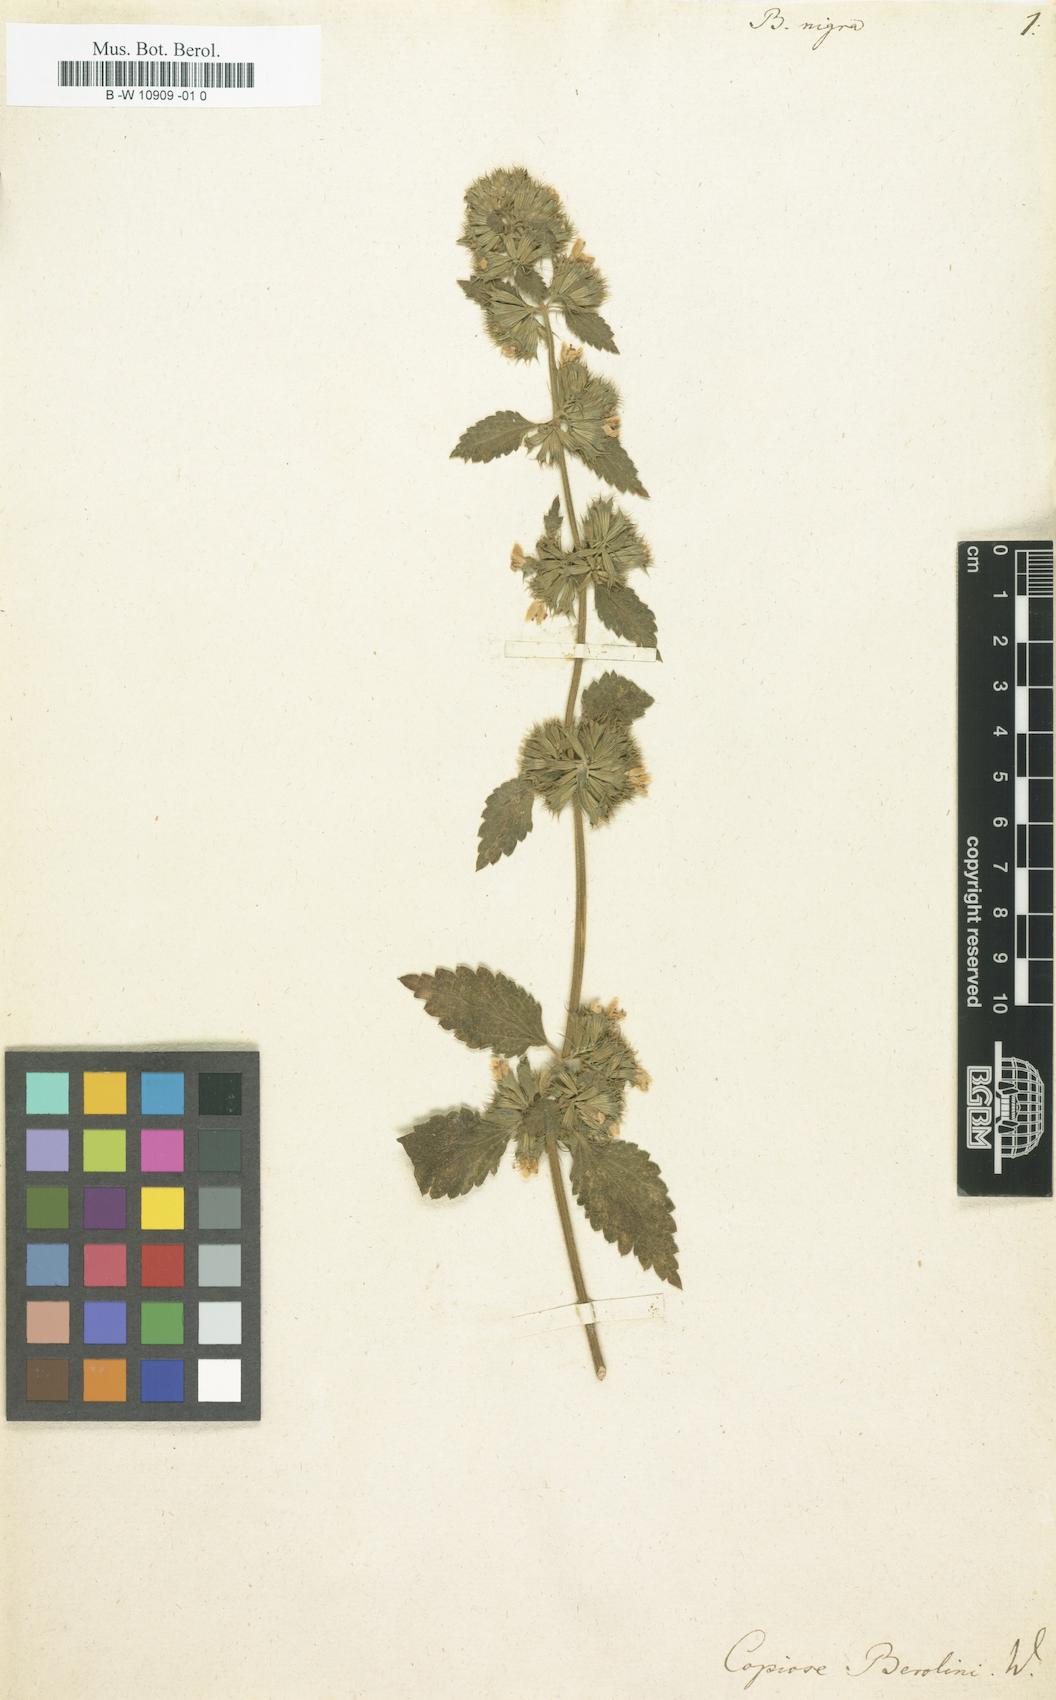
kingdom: Plantae
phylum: Tracheophyta
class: Magnoliopsida
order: Lamiales
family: Lamiaceae
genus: Ballota
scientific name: Ballota nigra
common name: Black horehound
